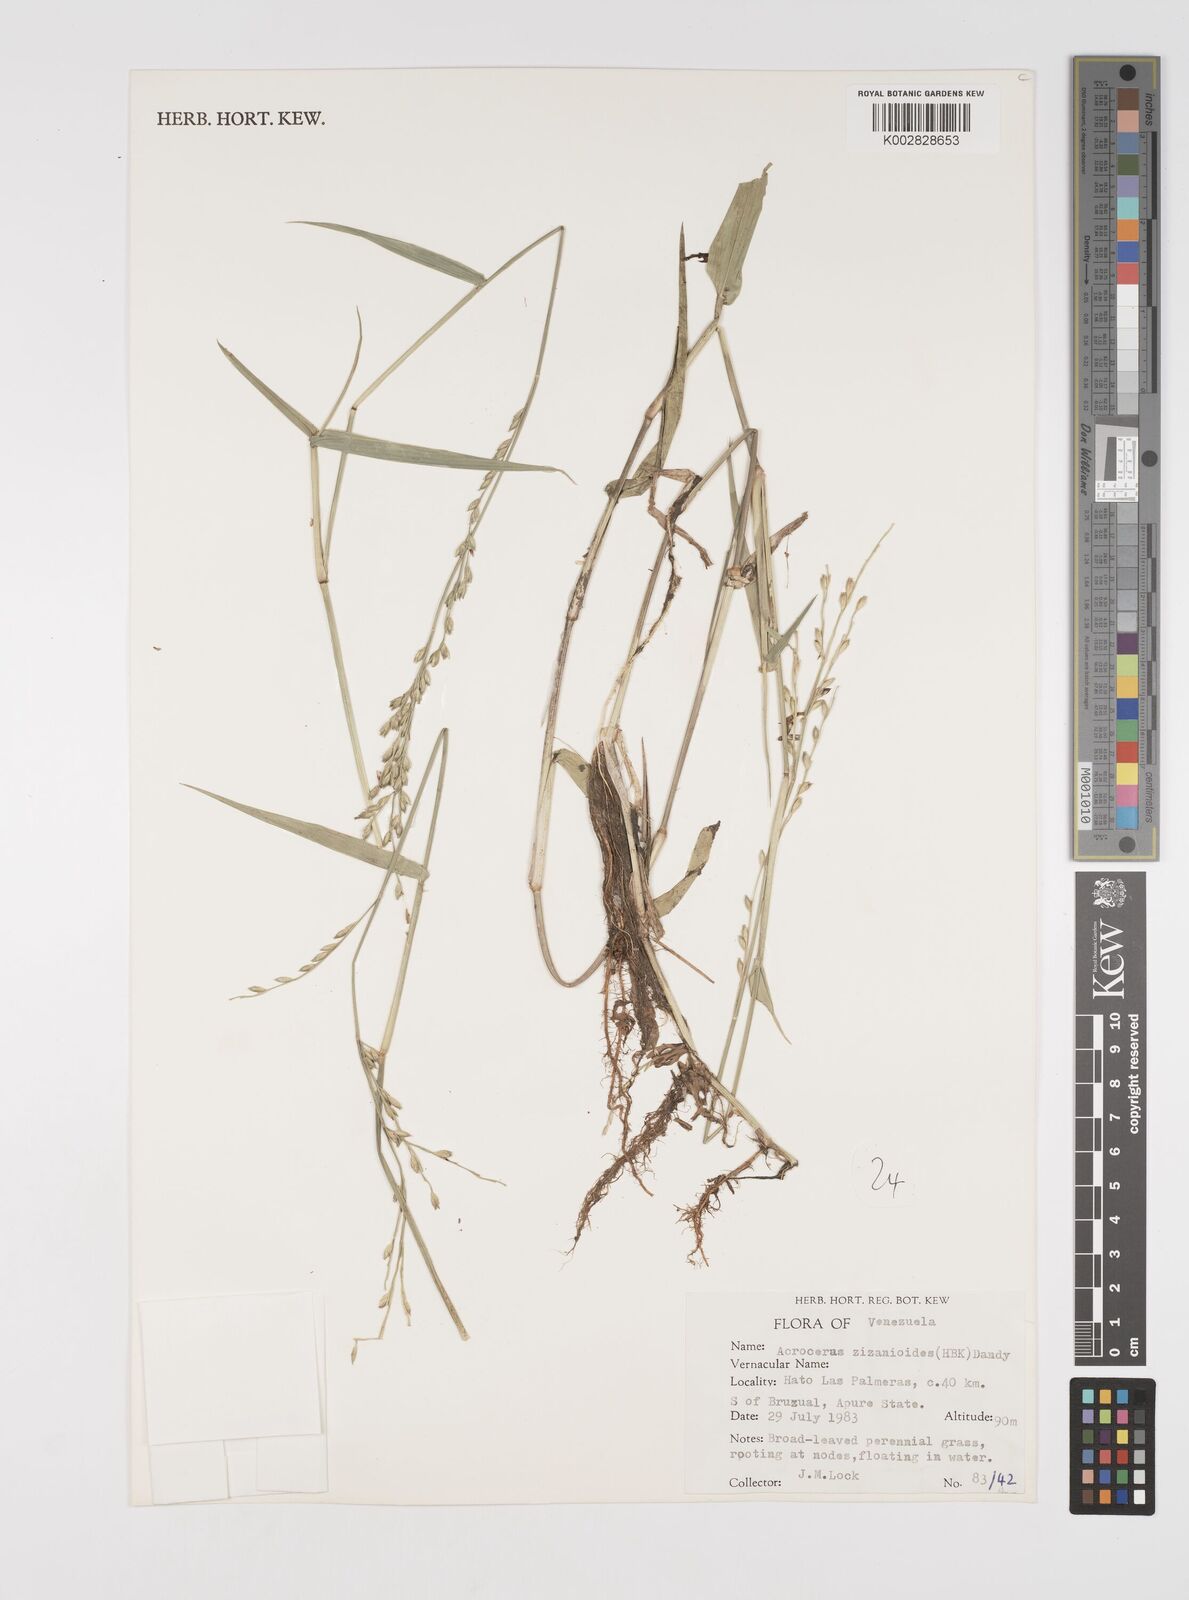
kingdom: Plantae
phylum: Tracheophyta
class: Liliopsida
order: Poales
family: Poaceae
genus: Acroceras
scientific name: Acroceras zizanioides
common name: Oat grass
